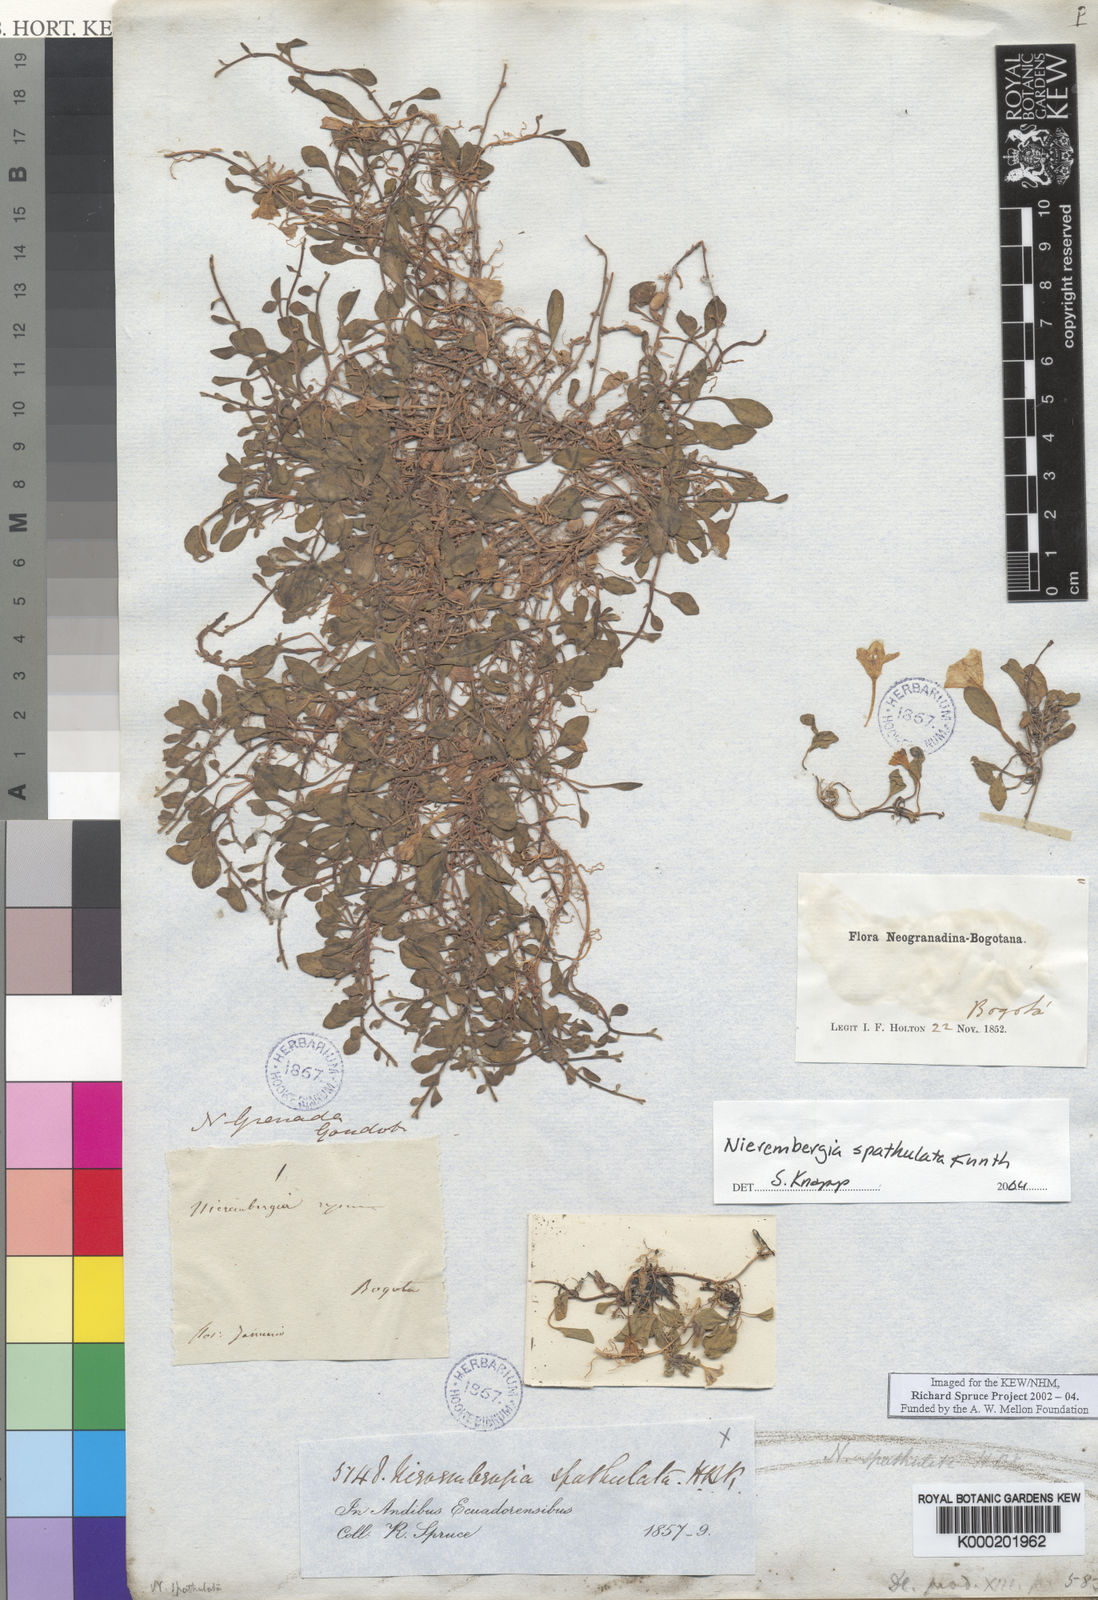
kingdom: Plantae
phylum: Tracheophyta
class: Magnoliopsida
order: Solanales
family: Solanaceae
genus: Nierembergia
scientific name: Nierembergia repens
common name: Whitecup
